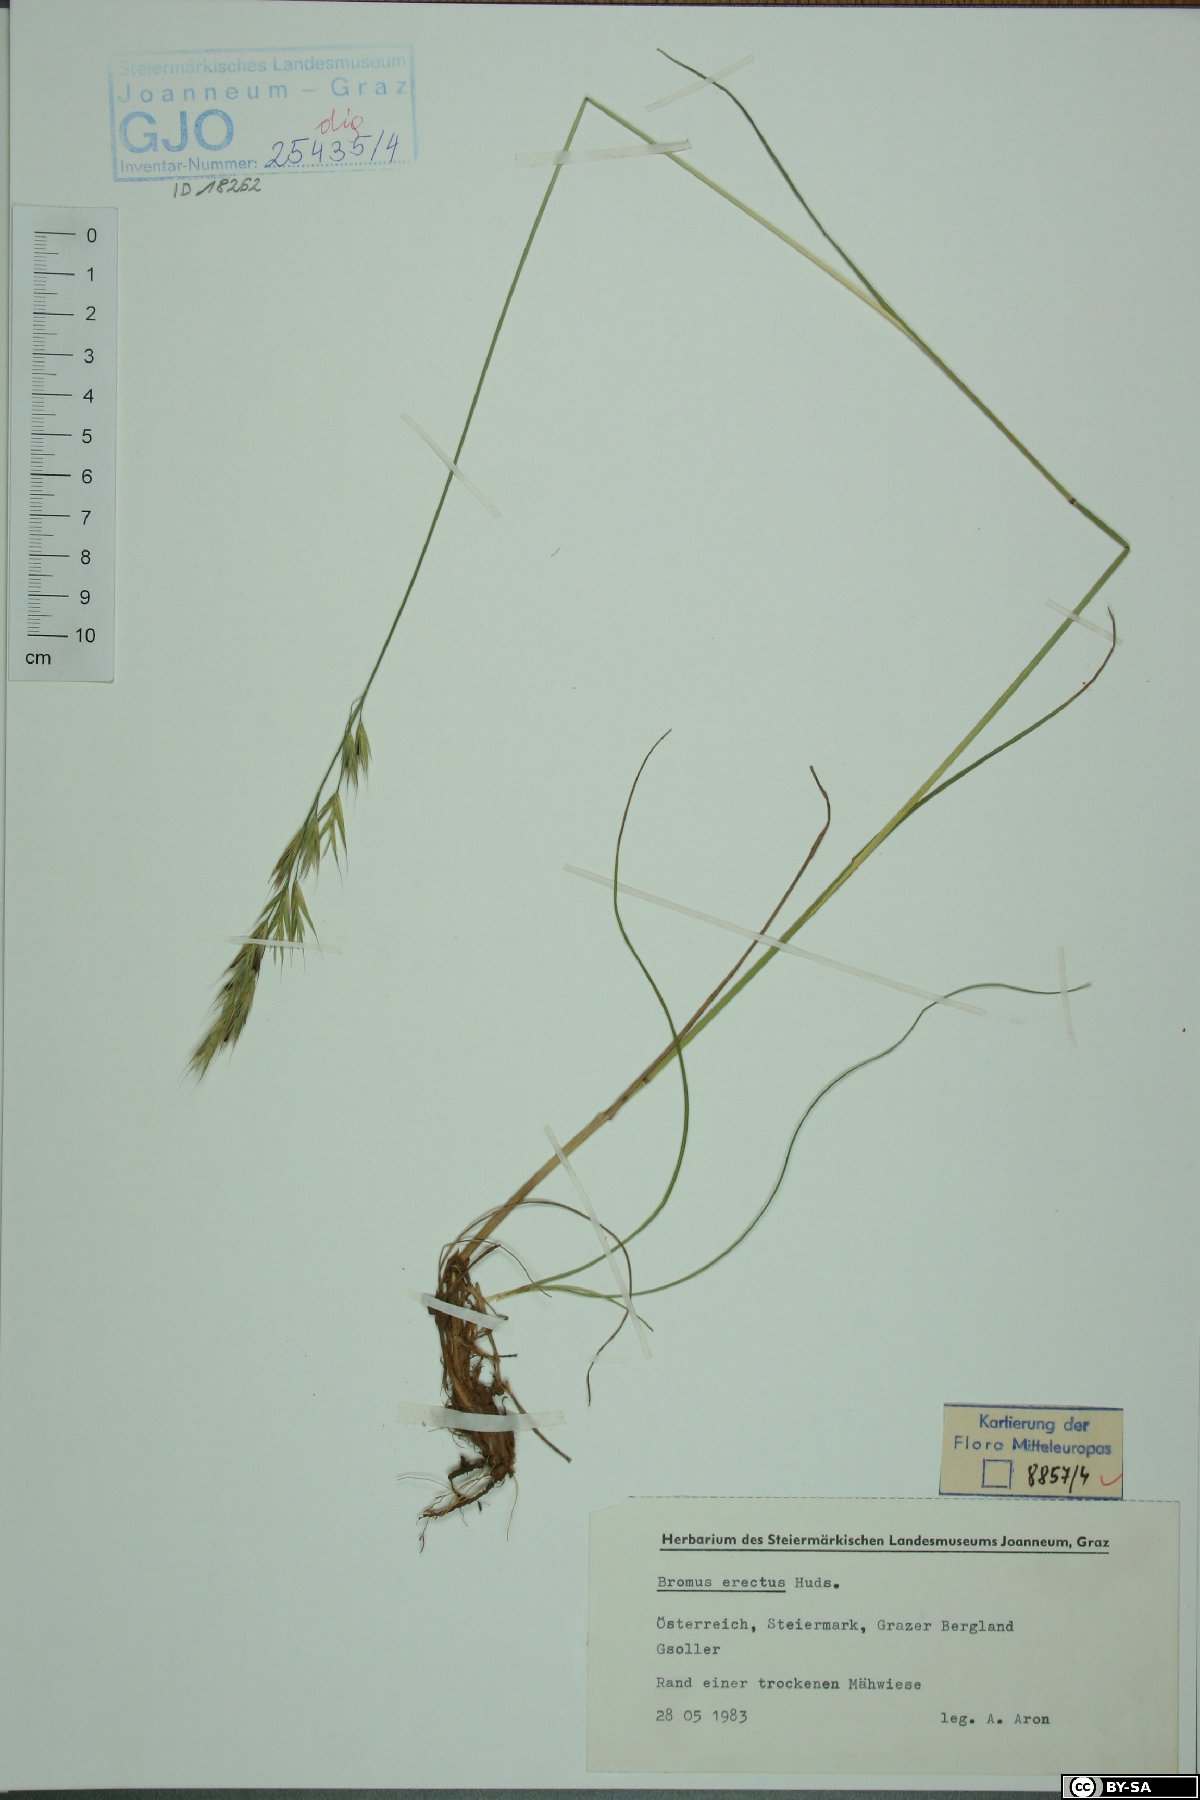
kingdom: Plantae
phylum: Tracheophyta
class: Liliopsida
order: Poales
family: Poaceae
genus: Bromus
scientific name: Bromus erectus
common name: Erect brome
